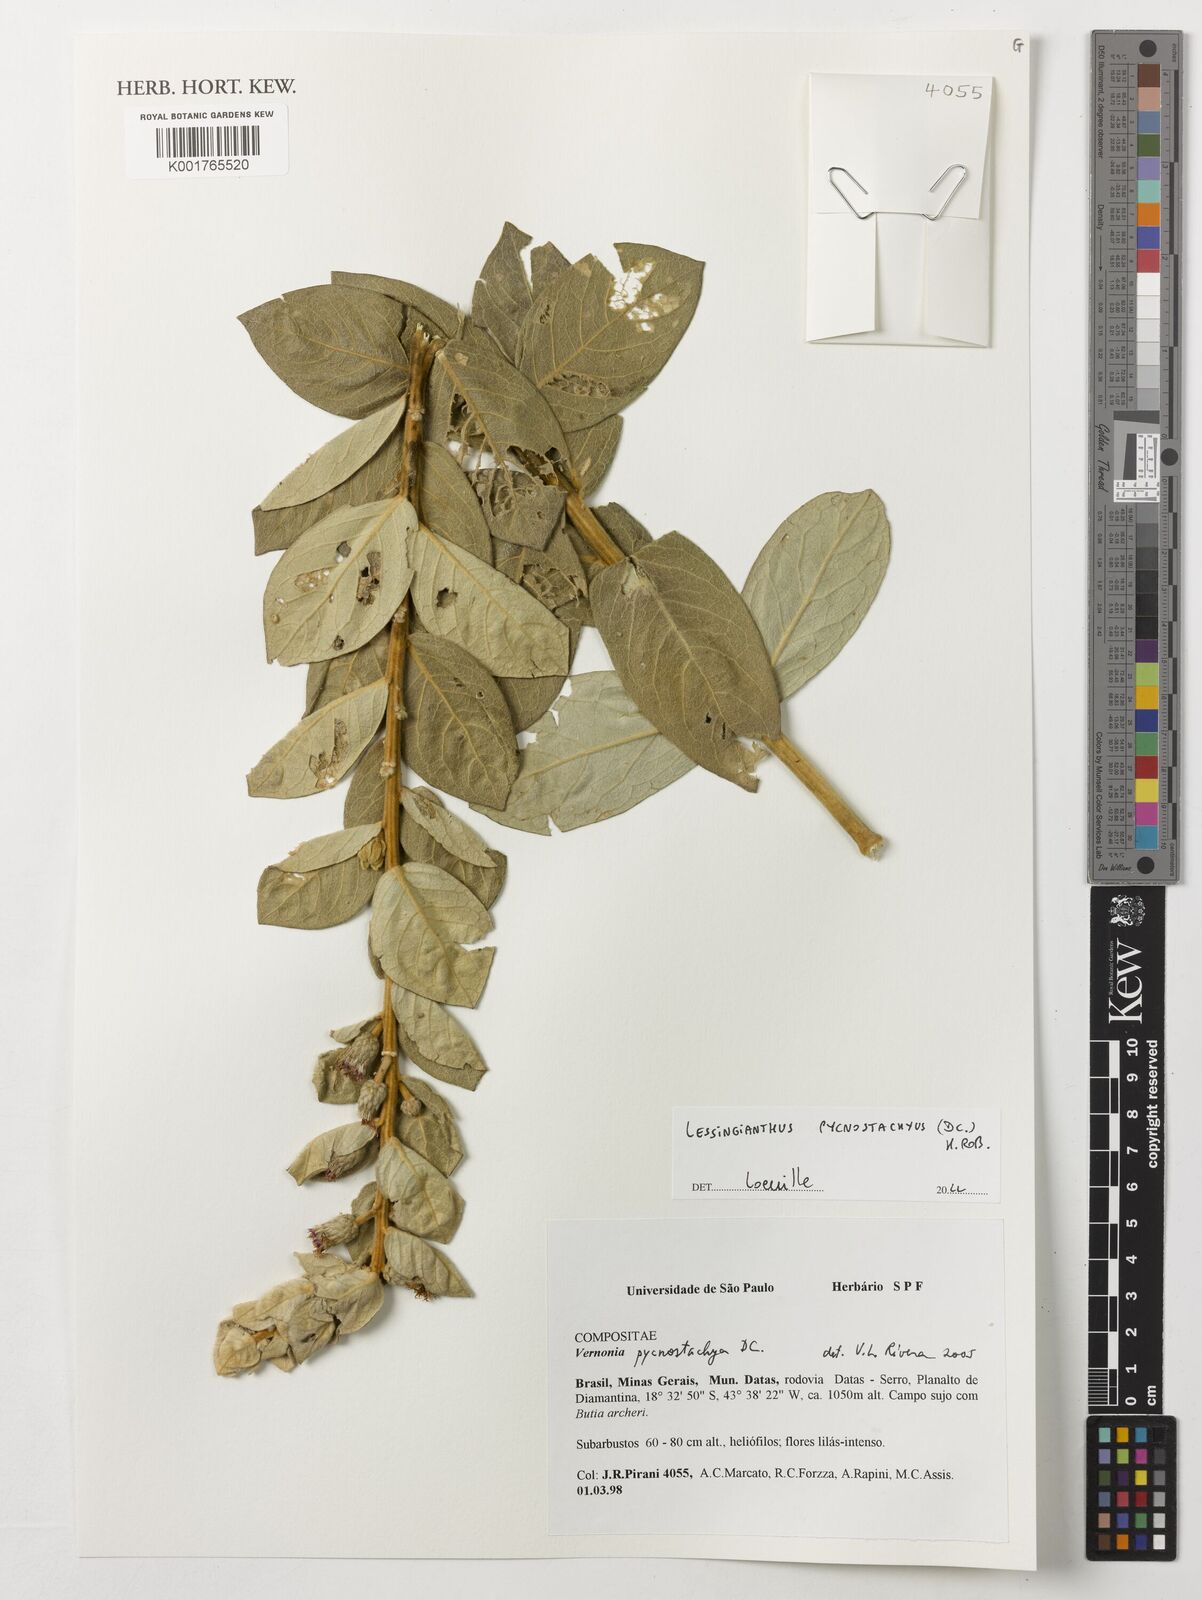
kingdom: Plantae
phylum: Tracheophyta
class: Magnoliopsida
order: Asterales
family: Asteraceae
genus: Lessingianthus
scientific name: Lessingianthus pycnostachyus
